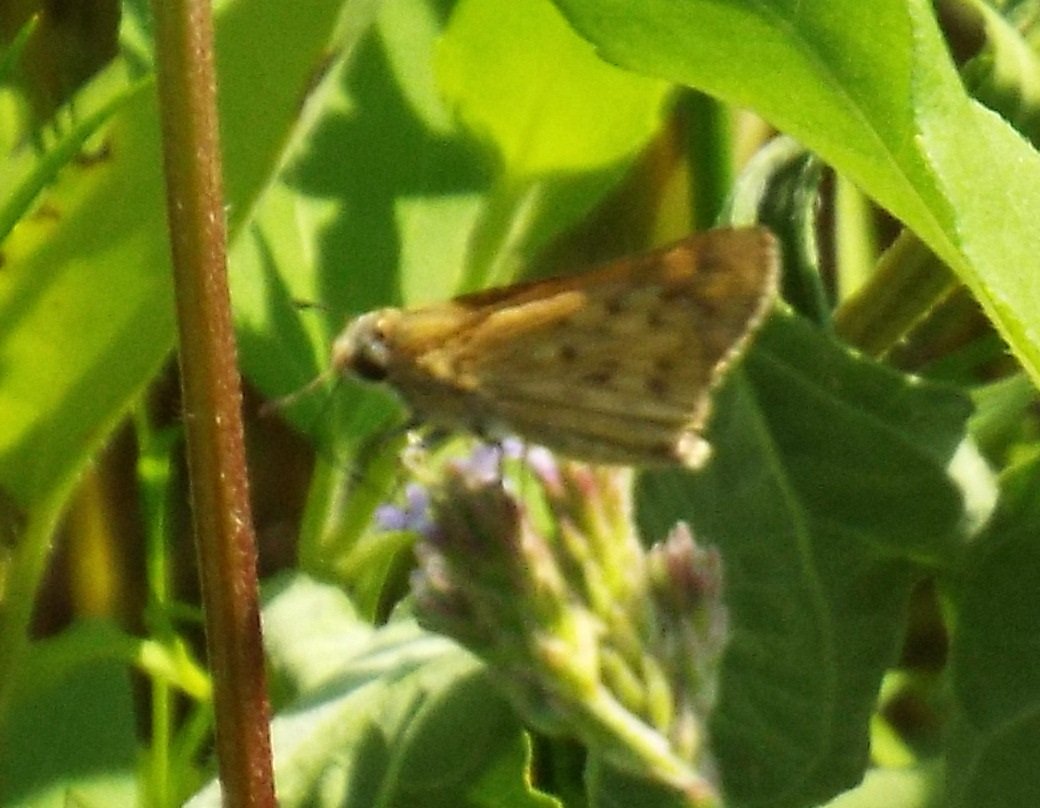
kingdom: Animalia
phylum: Arthropoda
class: Insecta
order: Lepidoptera
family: Hesperiidae
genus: Hylephila
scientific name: Hylephila phyleus
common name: Fiery Skipper
